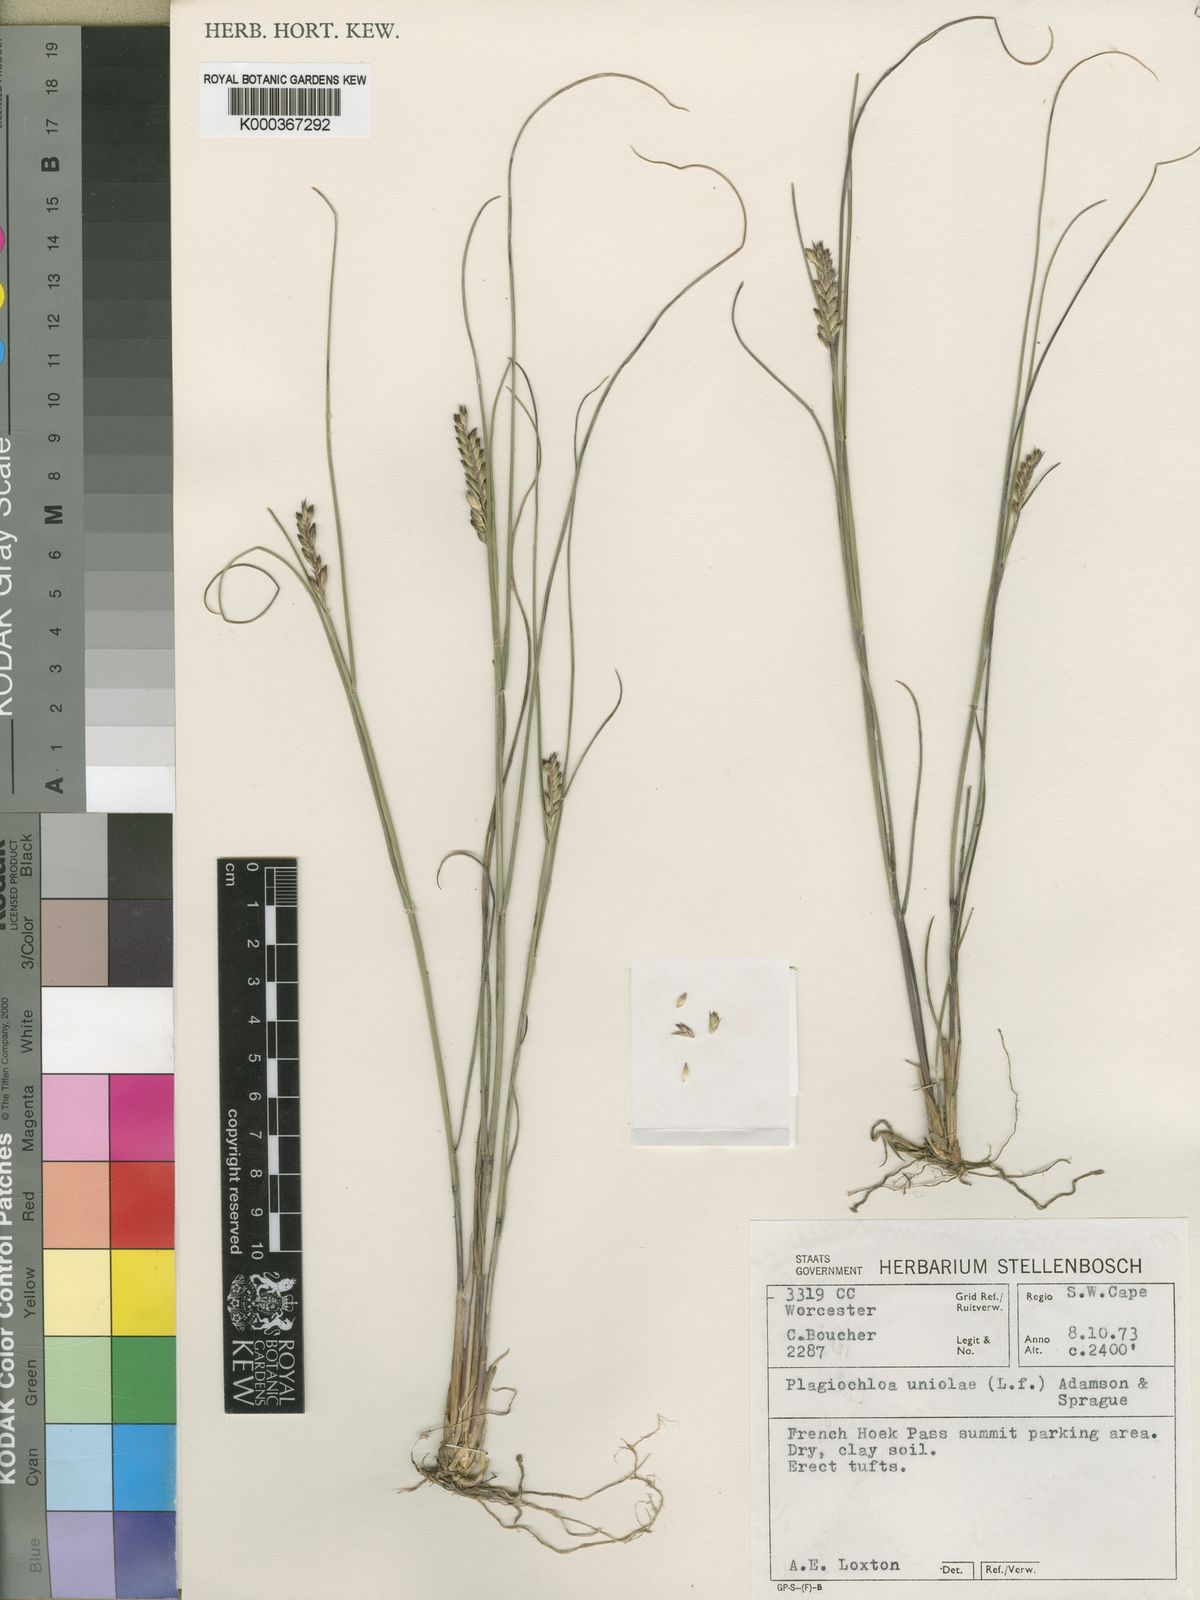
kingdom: Plantae
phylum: Tracheophyta
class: Liliopsida
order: Poales
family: Poaceae
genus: Tribolium
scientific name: Tribolium amplexum
